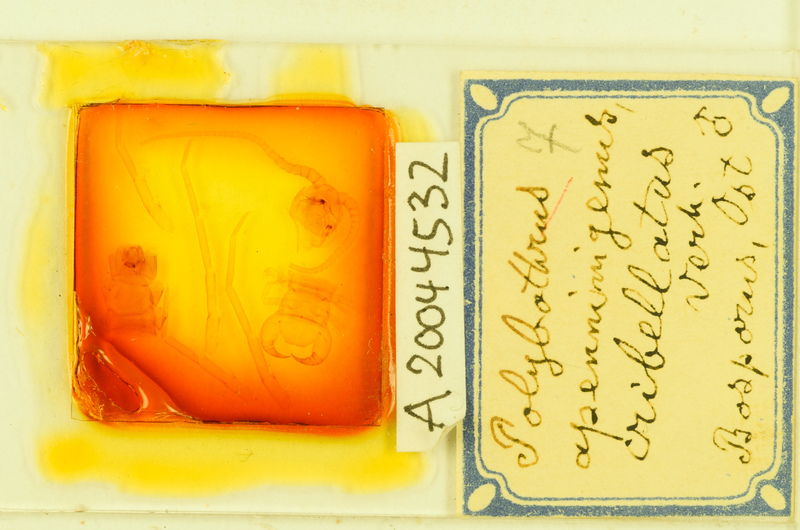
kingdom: Animalia
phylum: Arthropoda
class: Chilopoda
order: Lithobiomorpha
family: Lithobiidae
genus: Polybothrus
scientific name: Polybothrus
